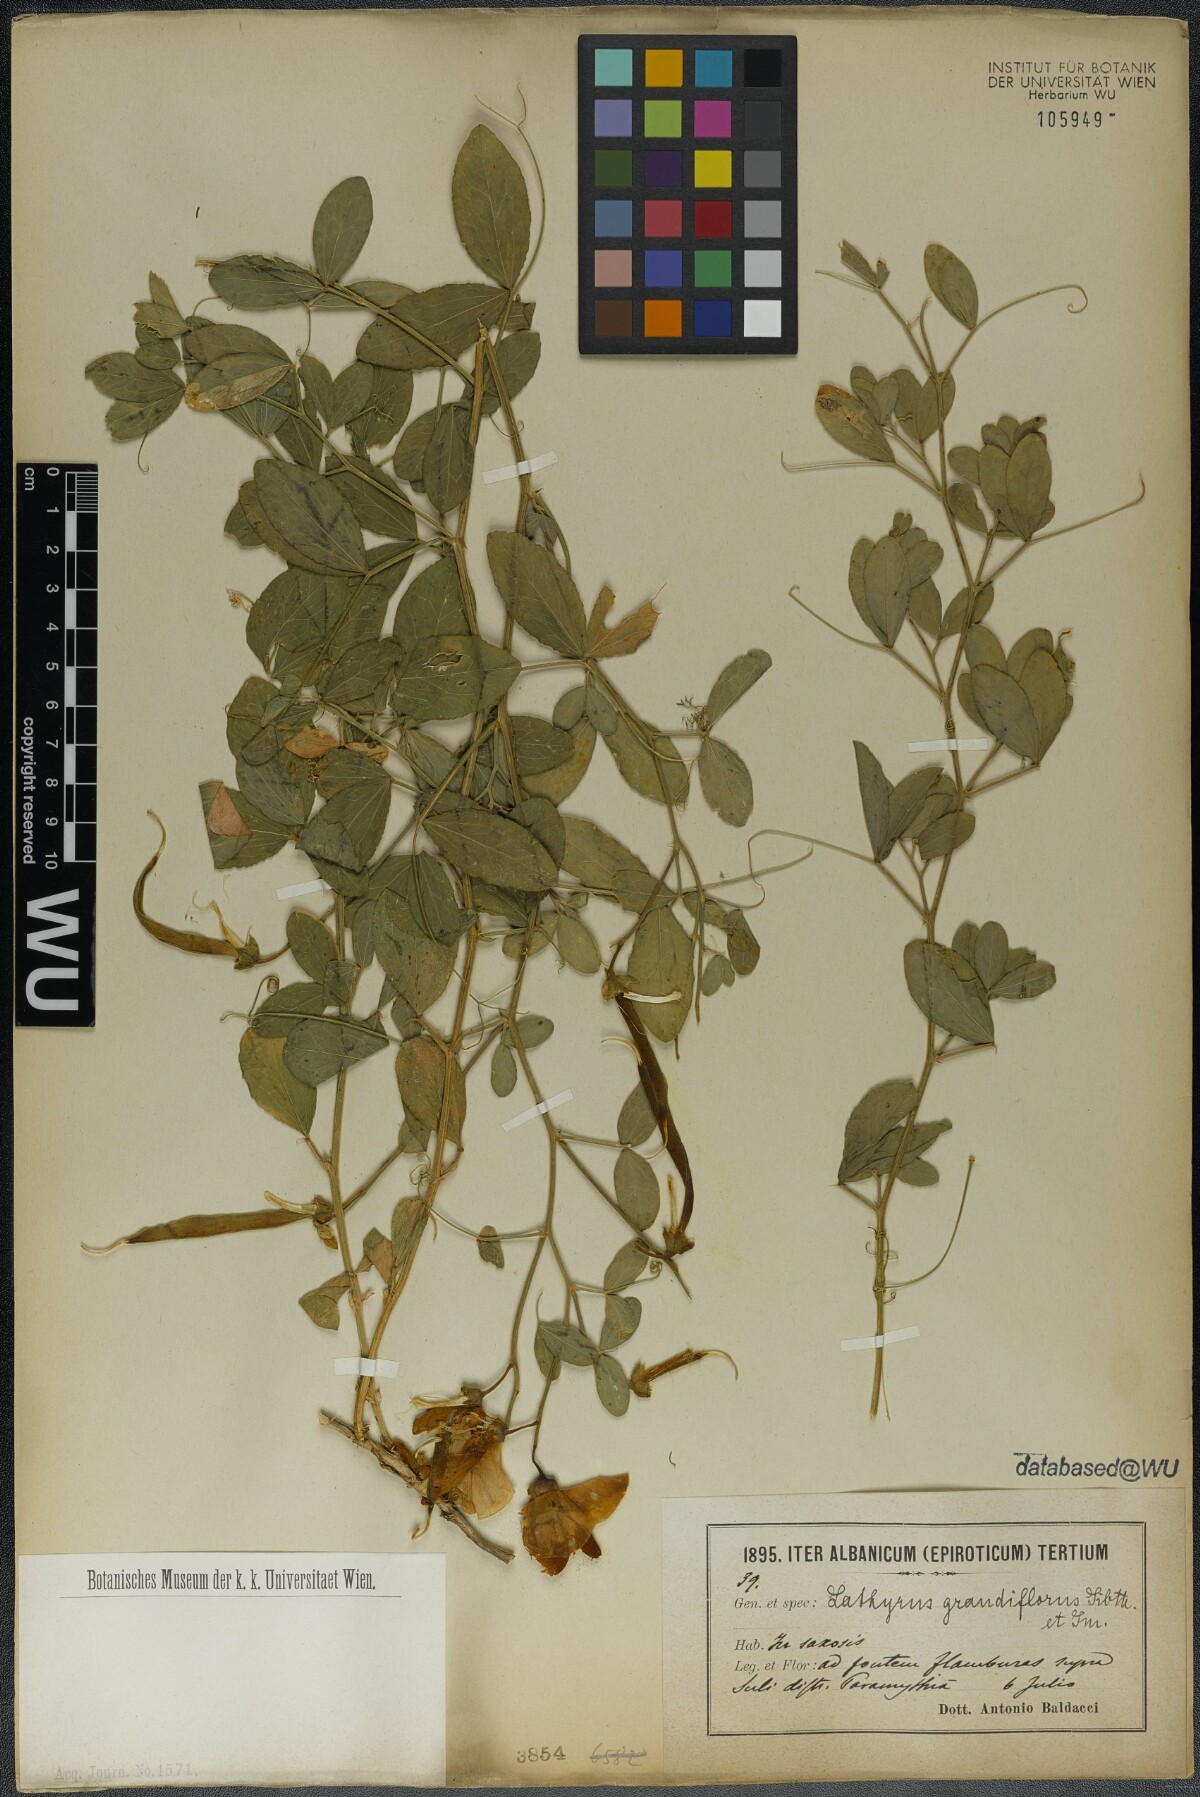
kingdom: Plantae
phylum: Tracheophyta
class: Magnoliopsida
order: Fabales
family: Fabaceae
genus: Lathyrus
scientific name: Lathyrus grandiflorus
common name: Two-flowered everlasting-pea
